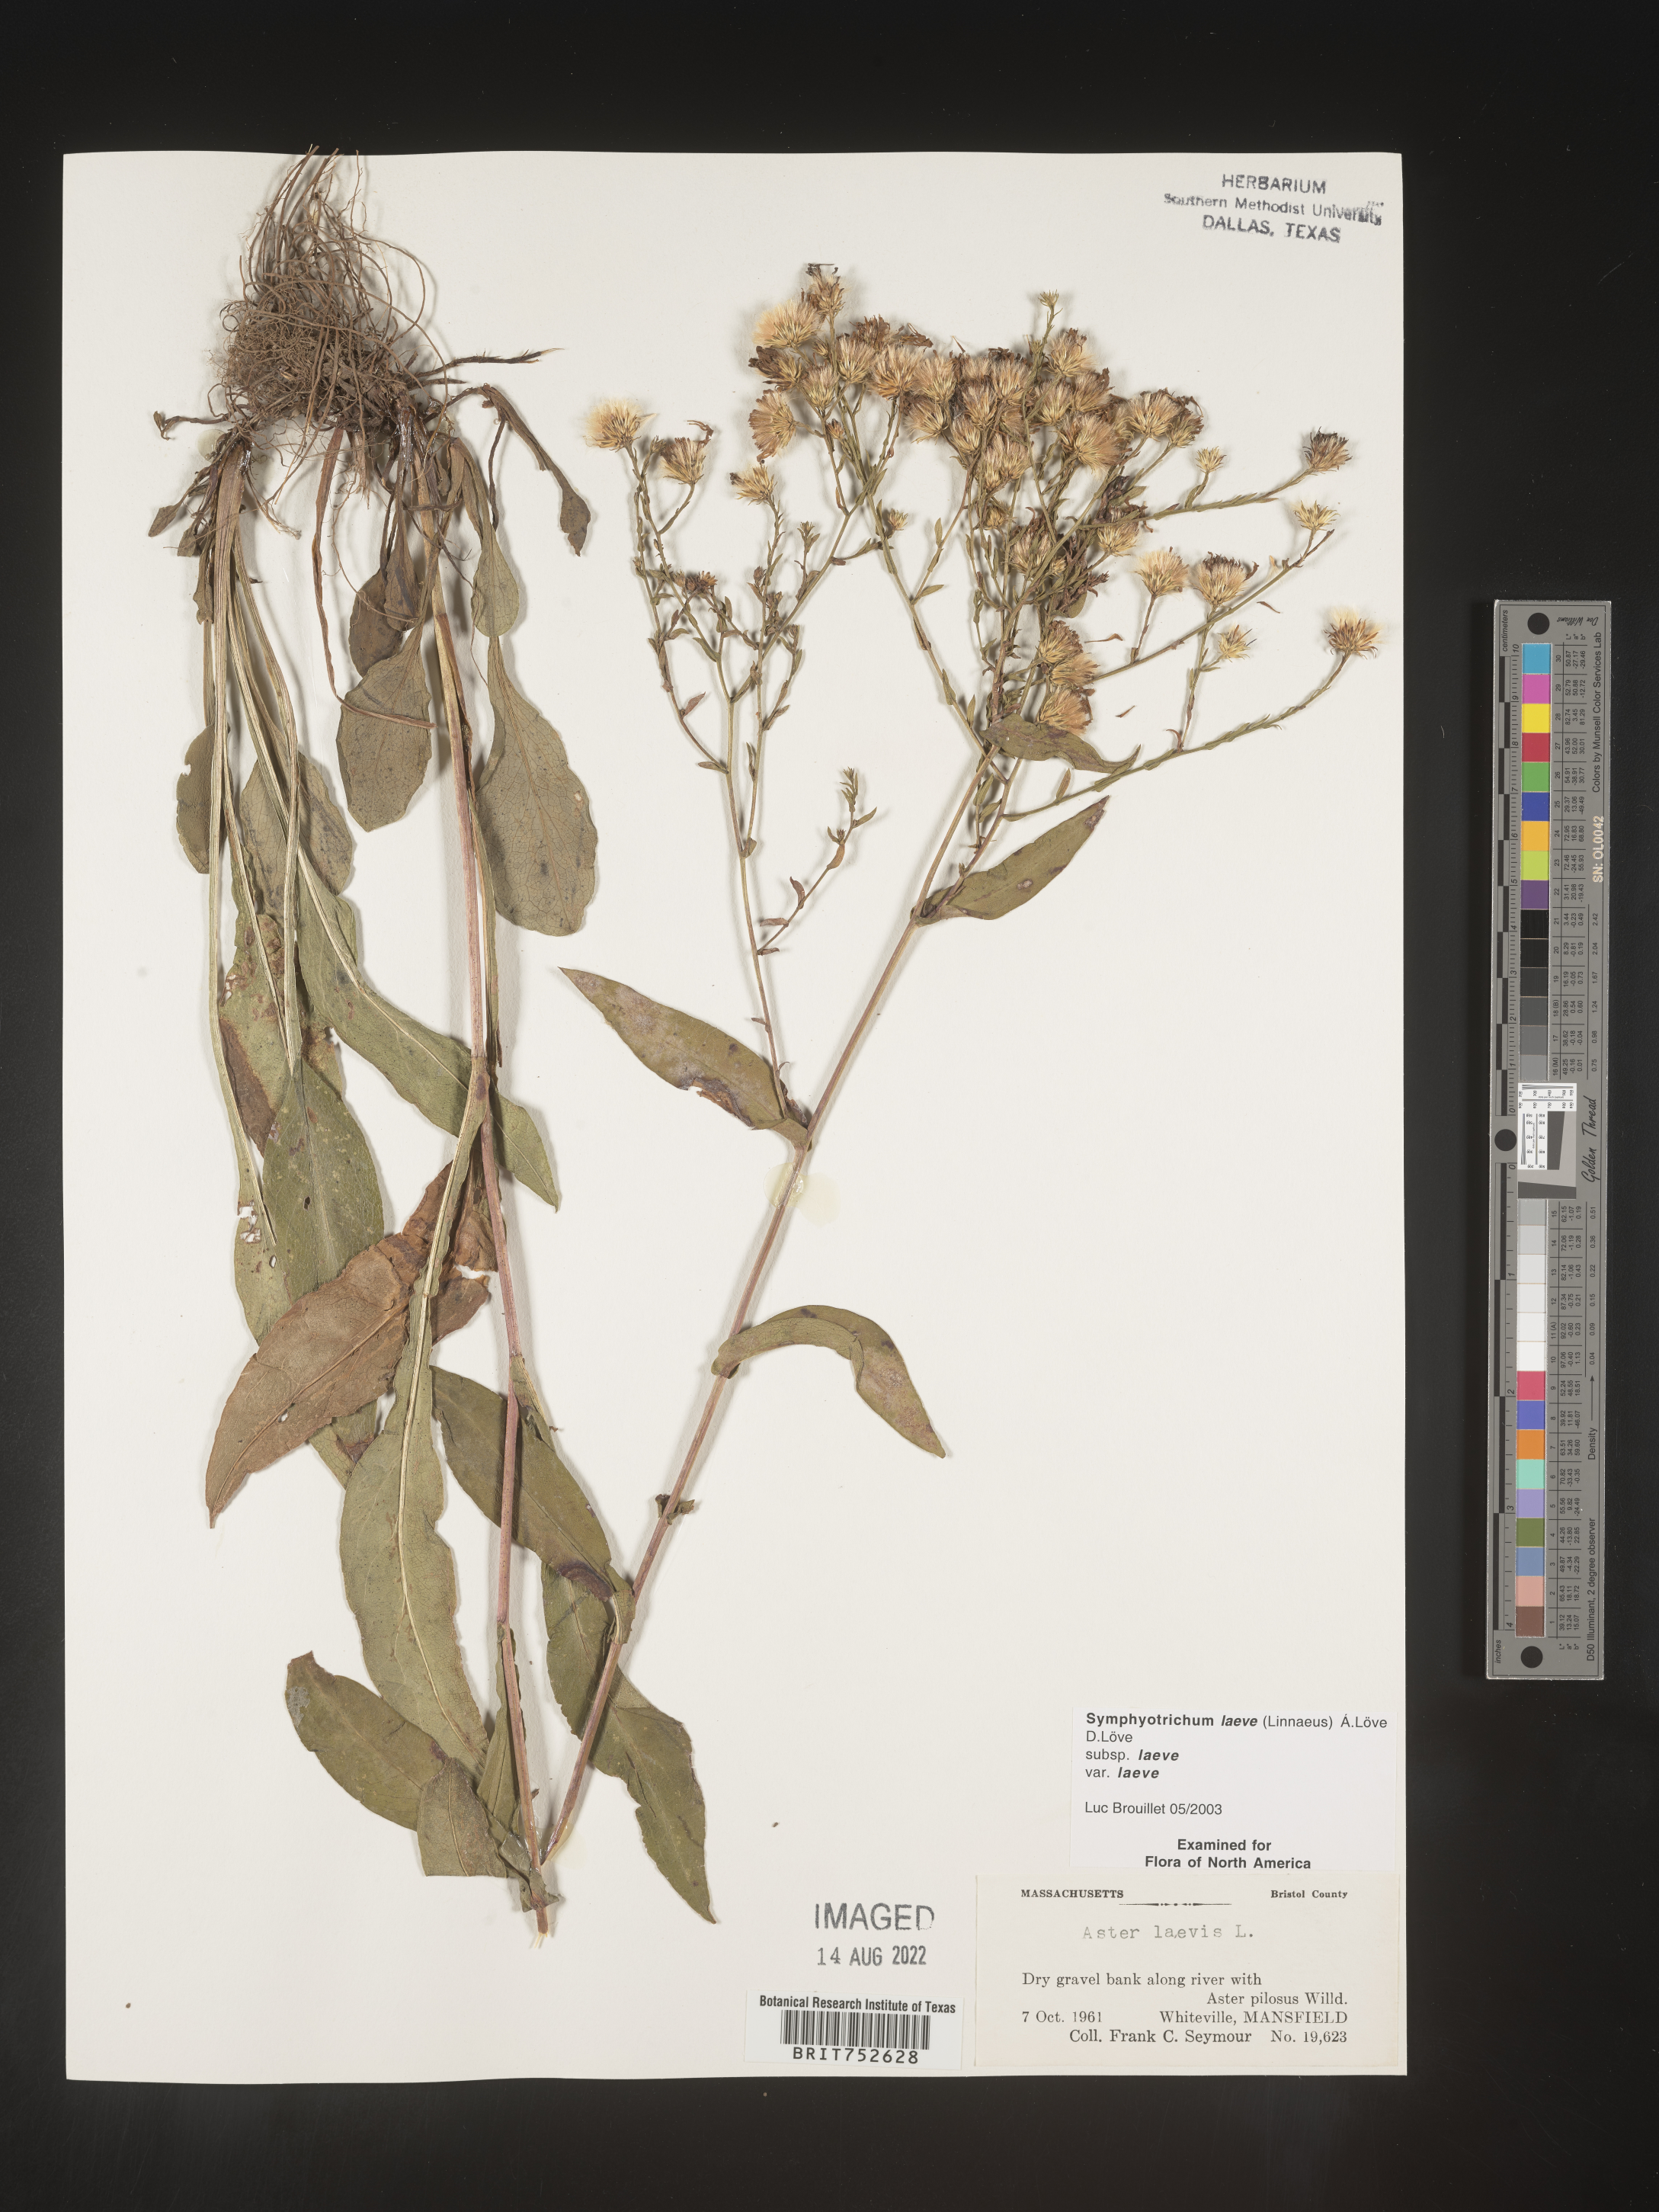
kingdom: Plantae
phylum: Tracheophyta
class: Magnoliopsida
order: Asterales
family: Asteraceae
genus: Symphyotrichum
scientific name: Symphyotrichum laeve
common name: Glaucous aster
